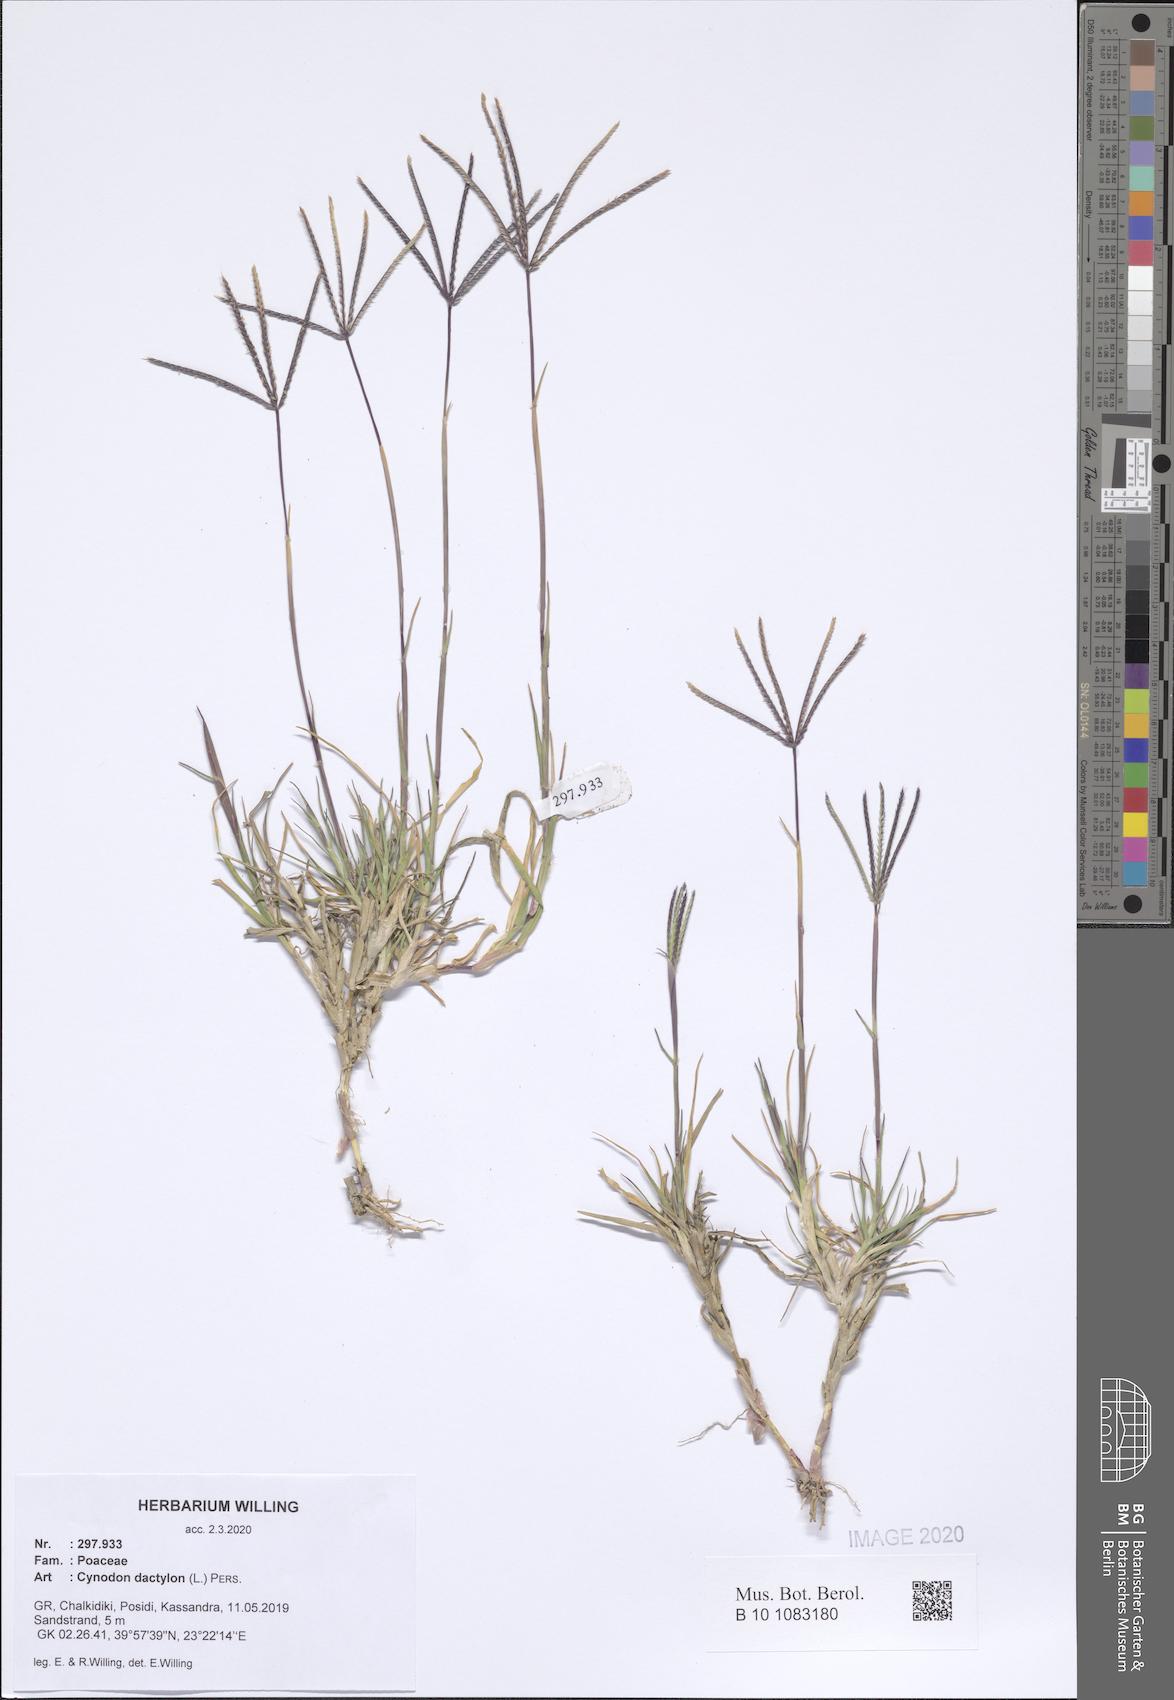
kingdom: Plantae
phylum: Tracheophyta
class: Liliopsida
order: Poales
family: Poaceae
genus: Cynodon
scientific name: Cynodon dactylon
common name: Bermuda grass
